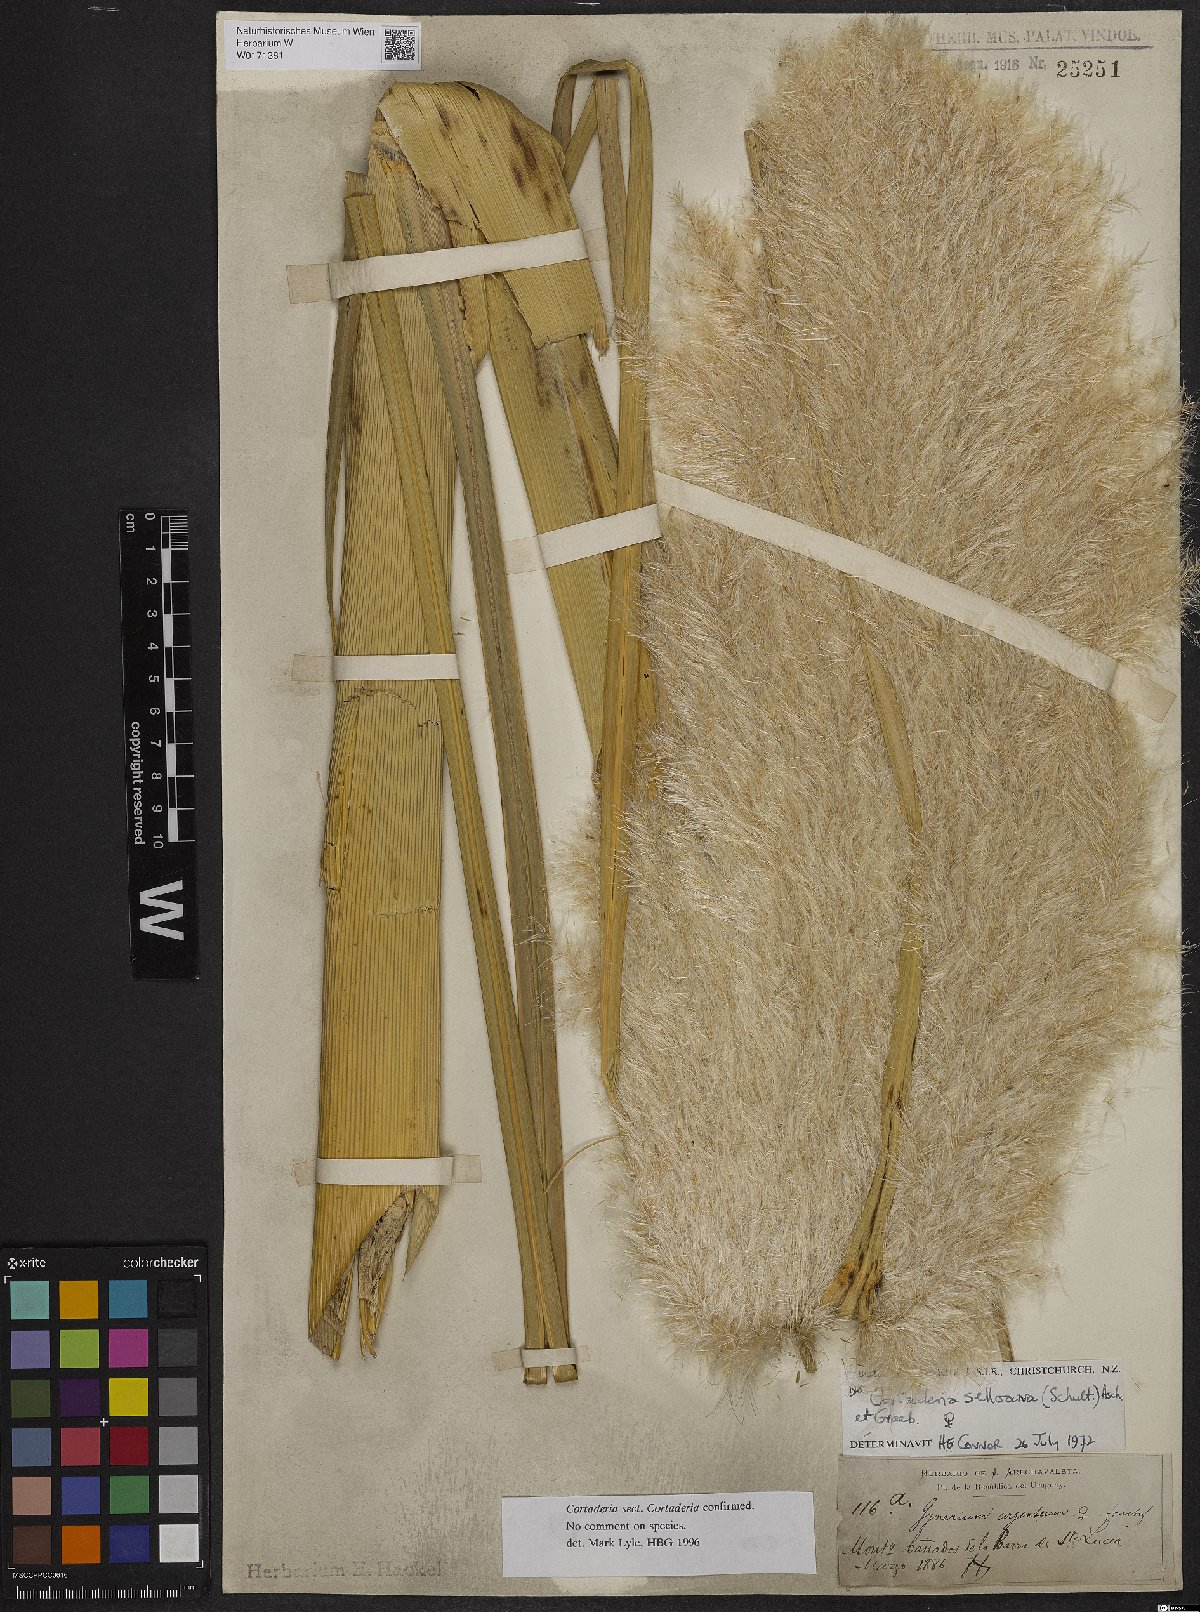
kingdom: Plantae
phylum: Tracheophyta
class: Liliopsida
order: Poales
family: Poaceae
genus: Cortaderia
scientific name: Cortaderia selloana
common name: Uruguayan pampas grass
